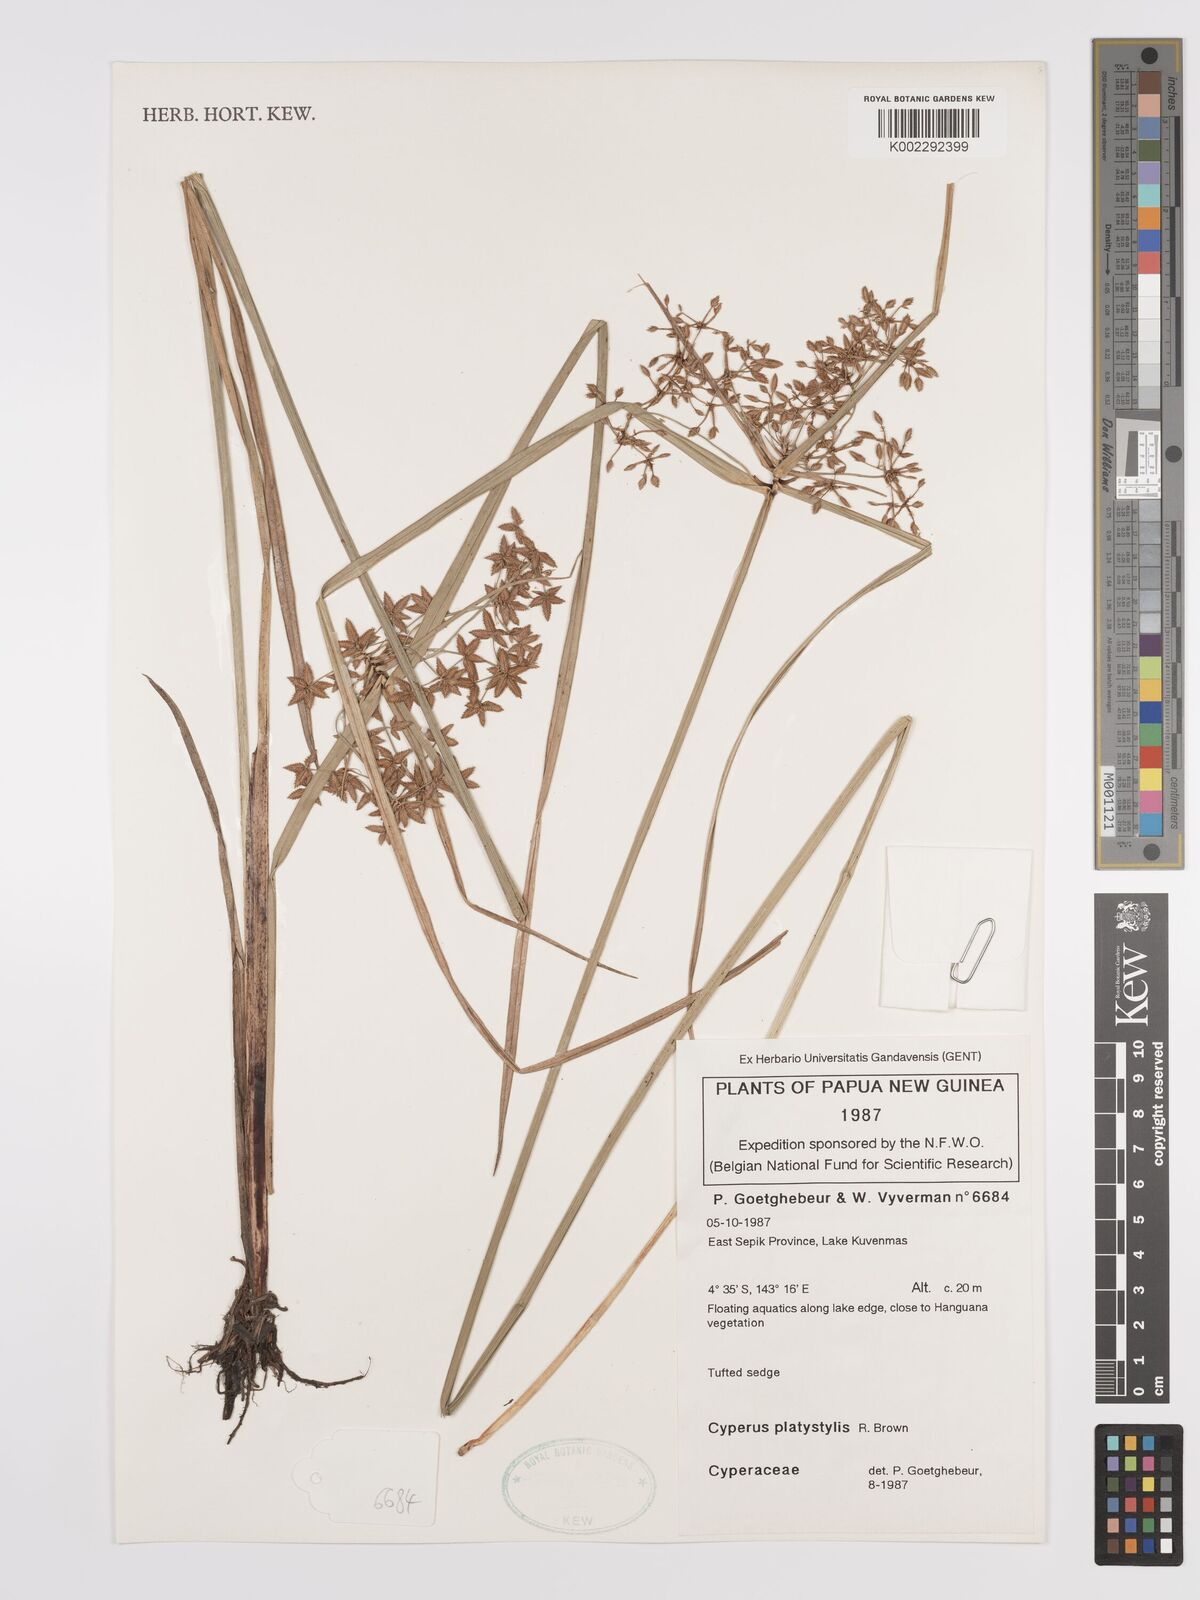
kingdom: Plantae
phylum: Tracheophyta
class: Liliopsida
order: Poales
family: Cyperaceae
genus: Cyperus
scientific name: Cyperus platystylis
